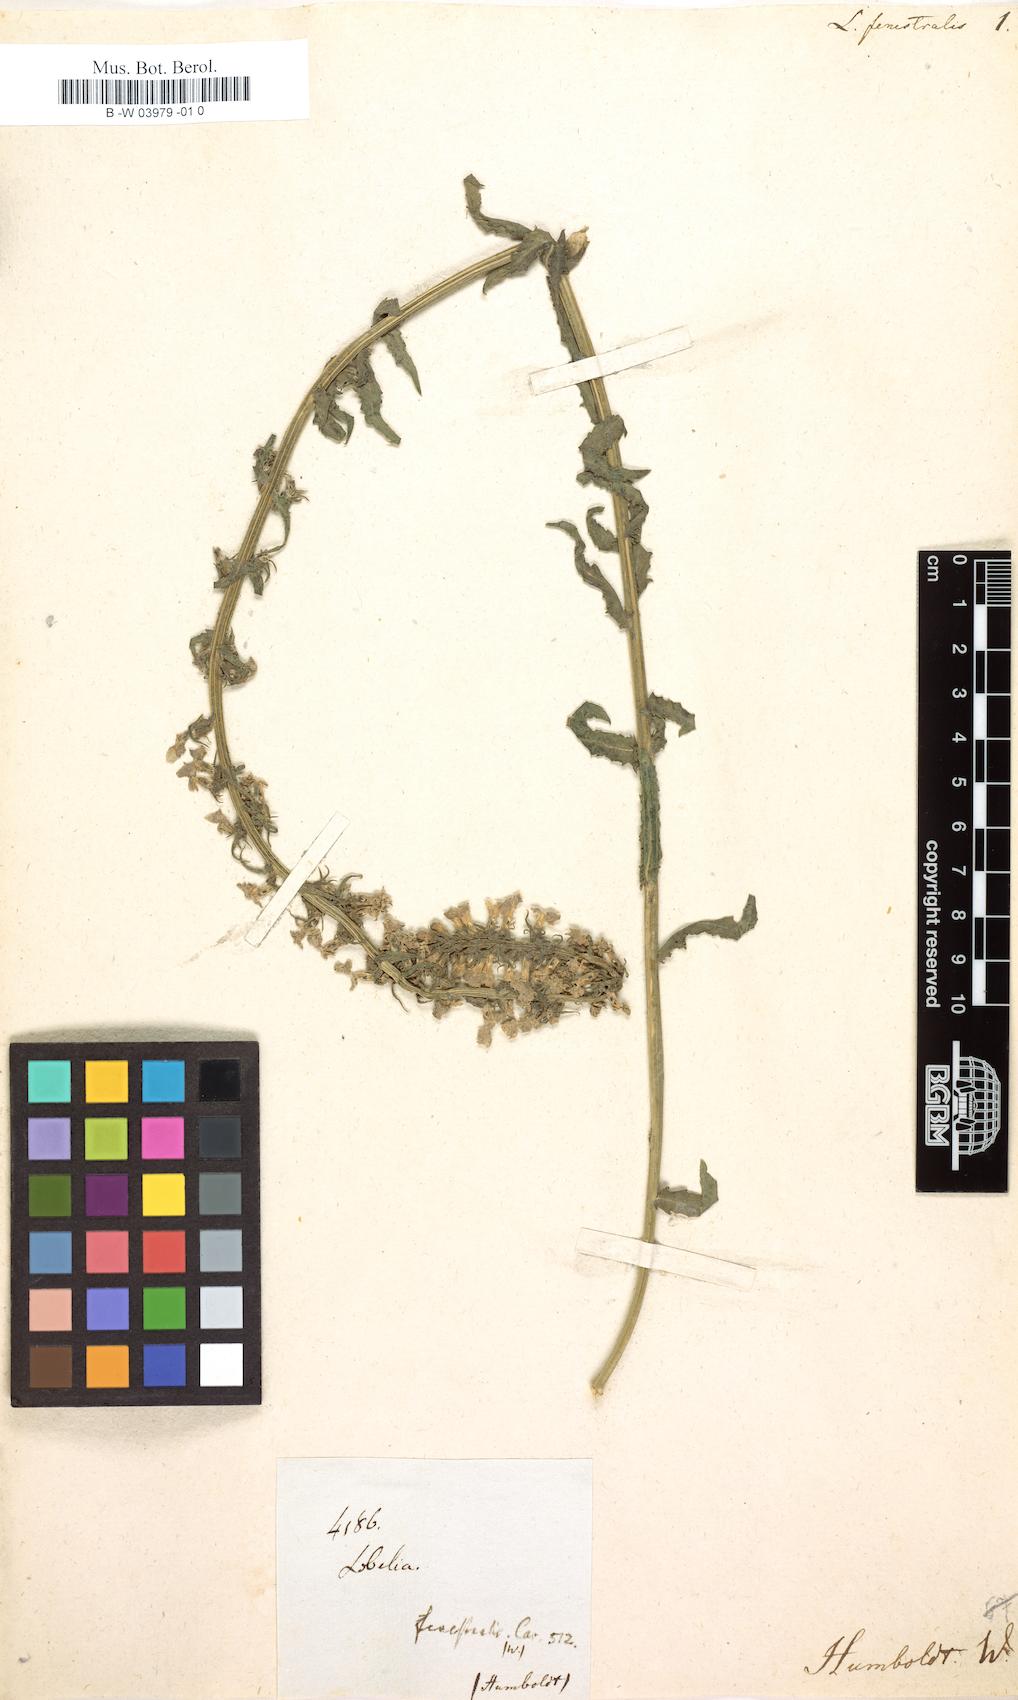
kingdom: Plantae
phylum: Tracheophyta
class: Magnoliopsida
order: Asterales
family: Campanulaceae
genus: Lobelia
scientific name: Lobelia fenestralis
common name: Leafy lobelia
